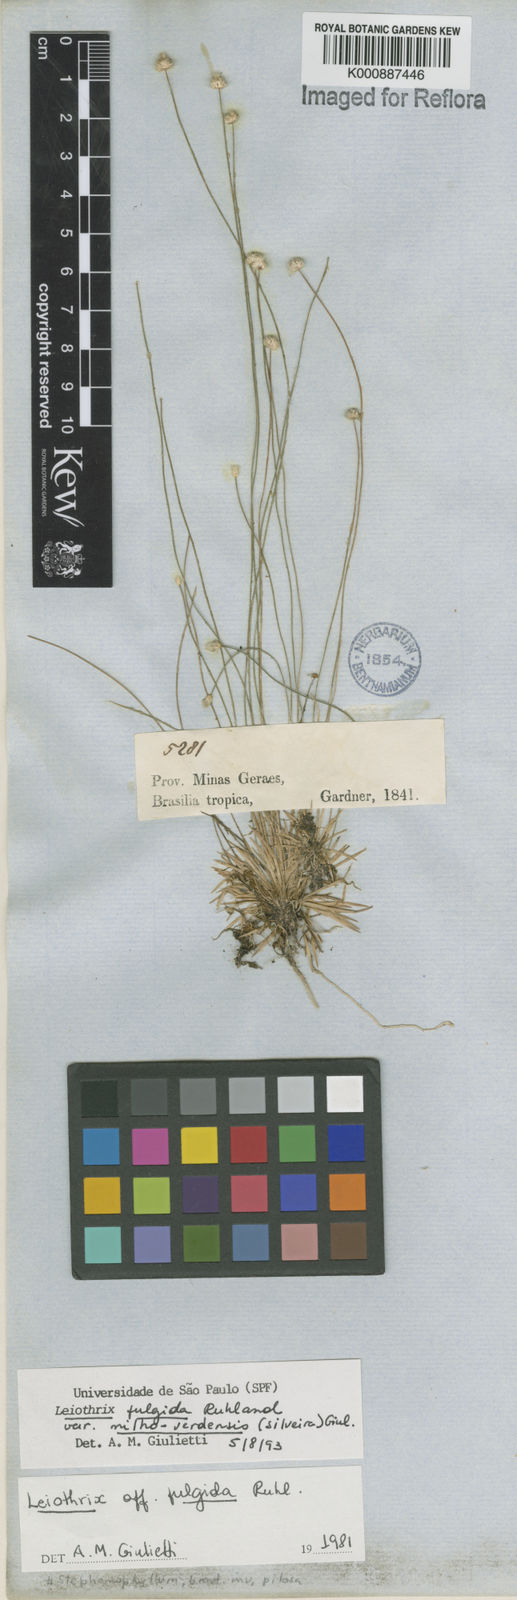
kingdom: Plantae
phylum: Tracheophyta
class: Liliopsida
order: Poales
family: Eriocaulaceae
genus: Leiothrix
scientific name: Leiothrix
